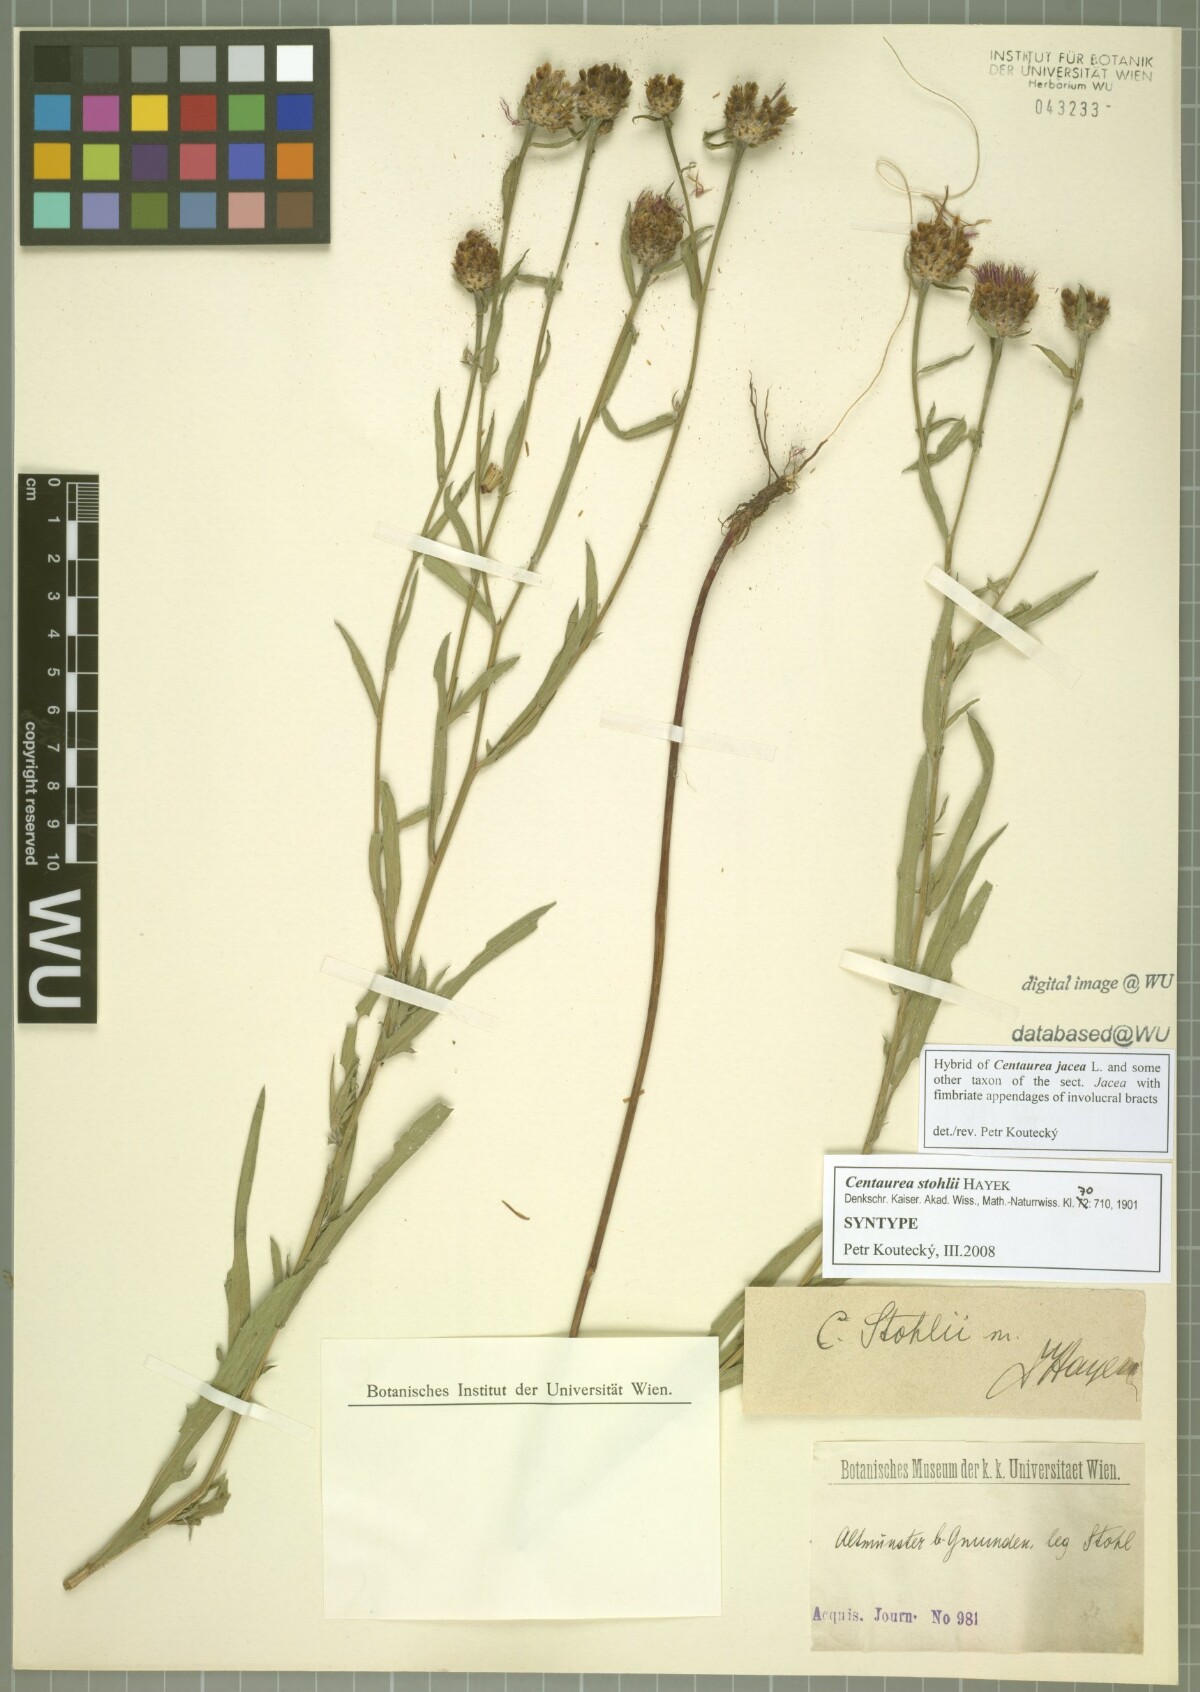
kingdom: Plantae
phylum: Tracheophyta
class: Magnoliopsida
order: Asterales
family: Asteraceae
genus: Centaurea
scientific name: Centaurea stohlii
